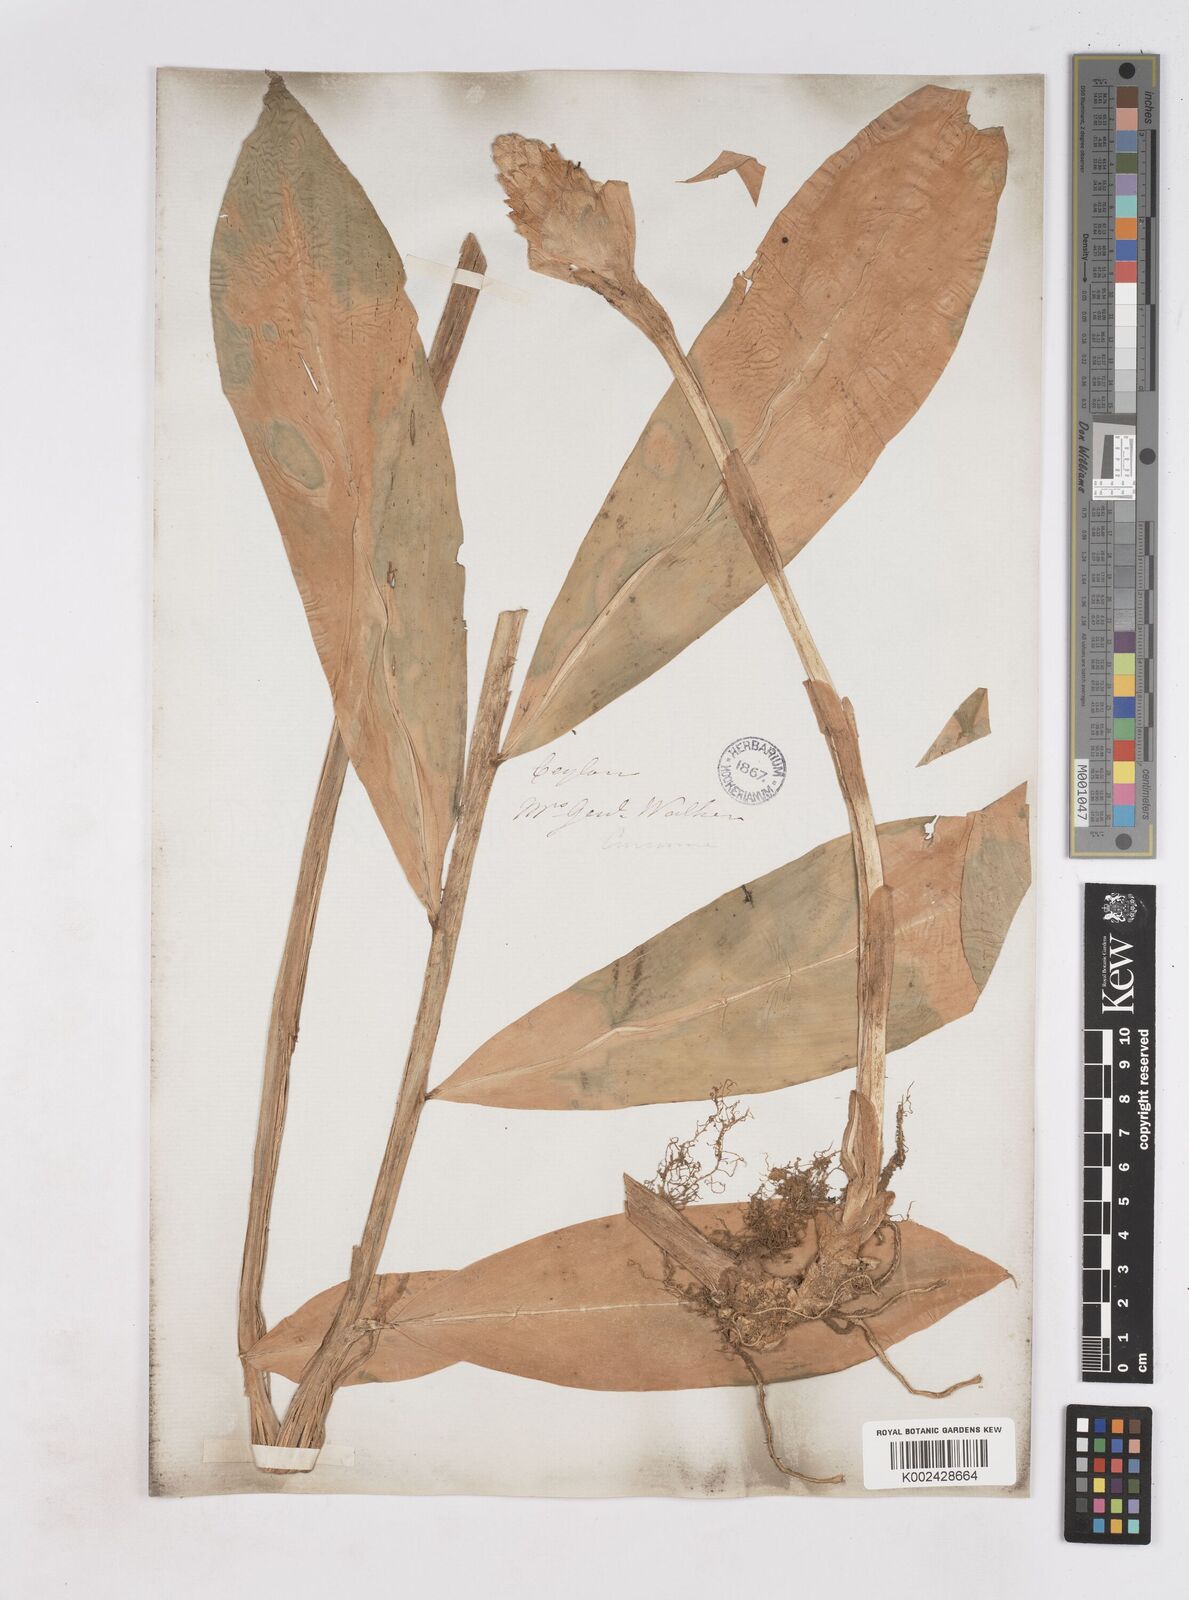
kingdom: Plantae
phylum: Tracheophyta
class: Liliopsida
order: Zingiberales
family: Zingiberaceae
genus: Zingiber
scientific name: Zingiber zerumbet
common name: Bitter ginger
